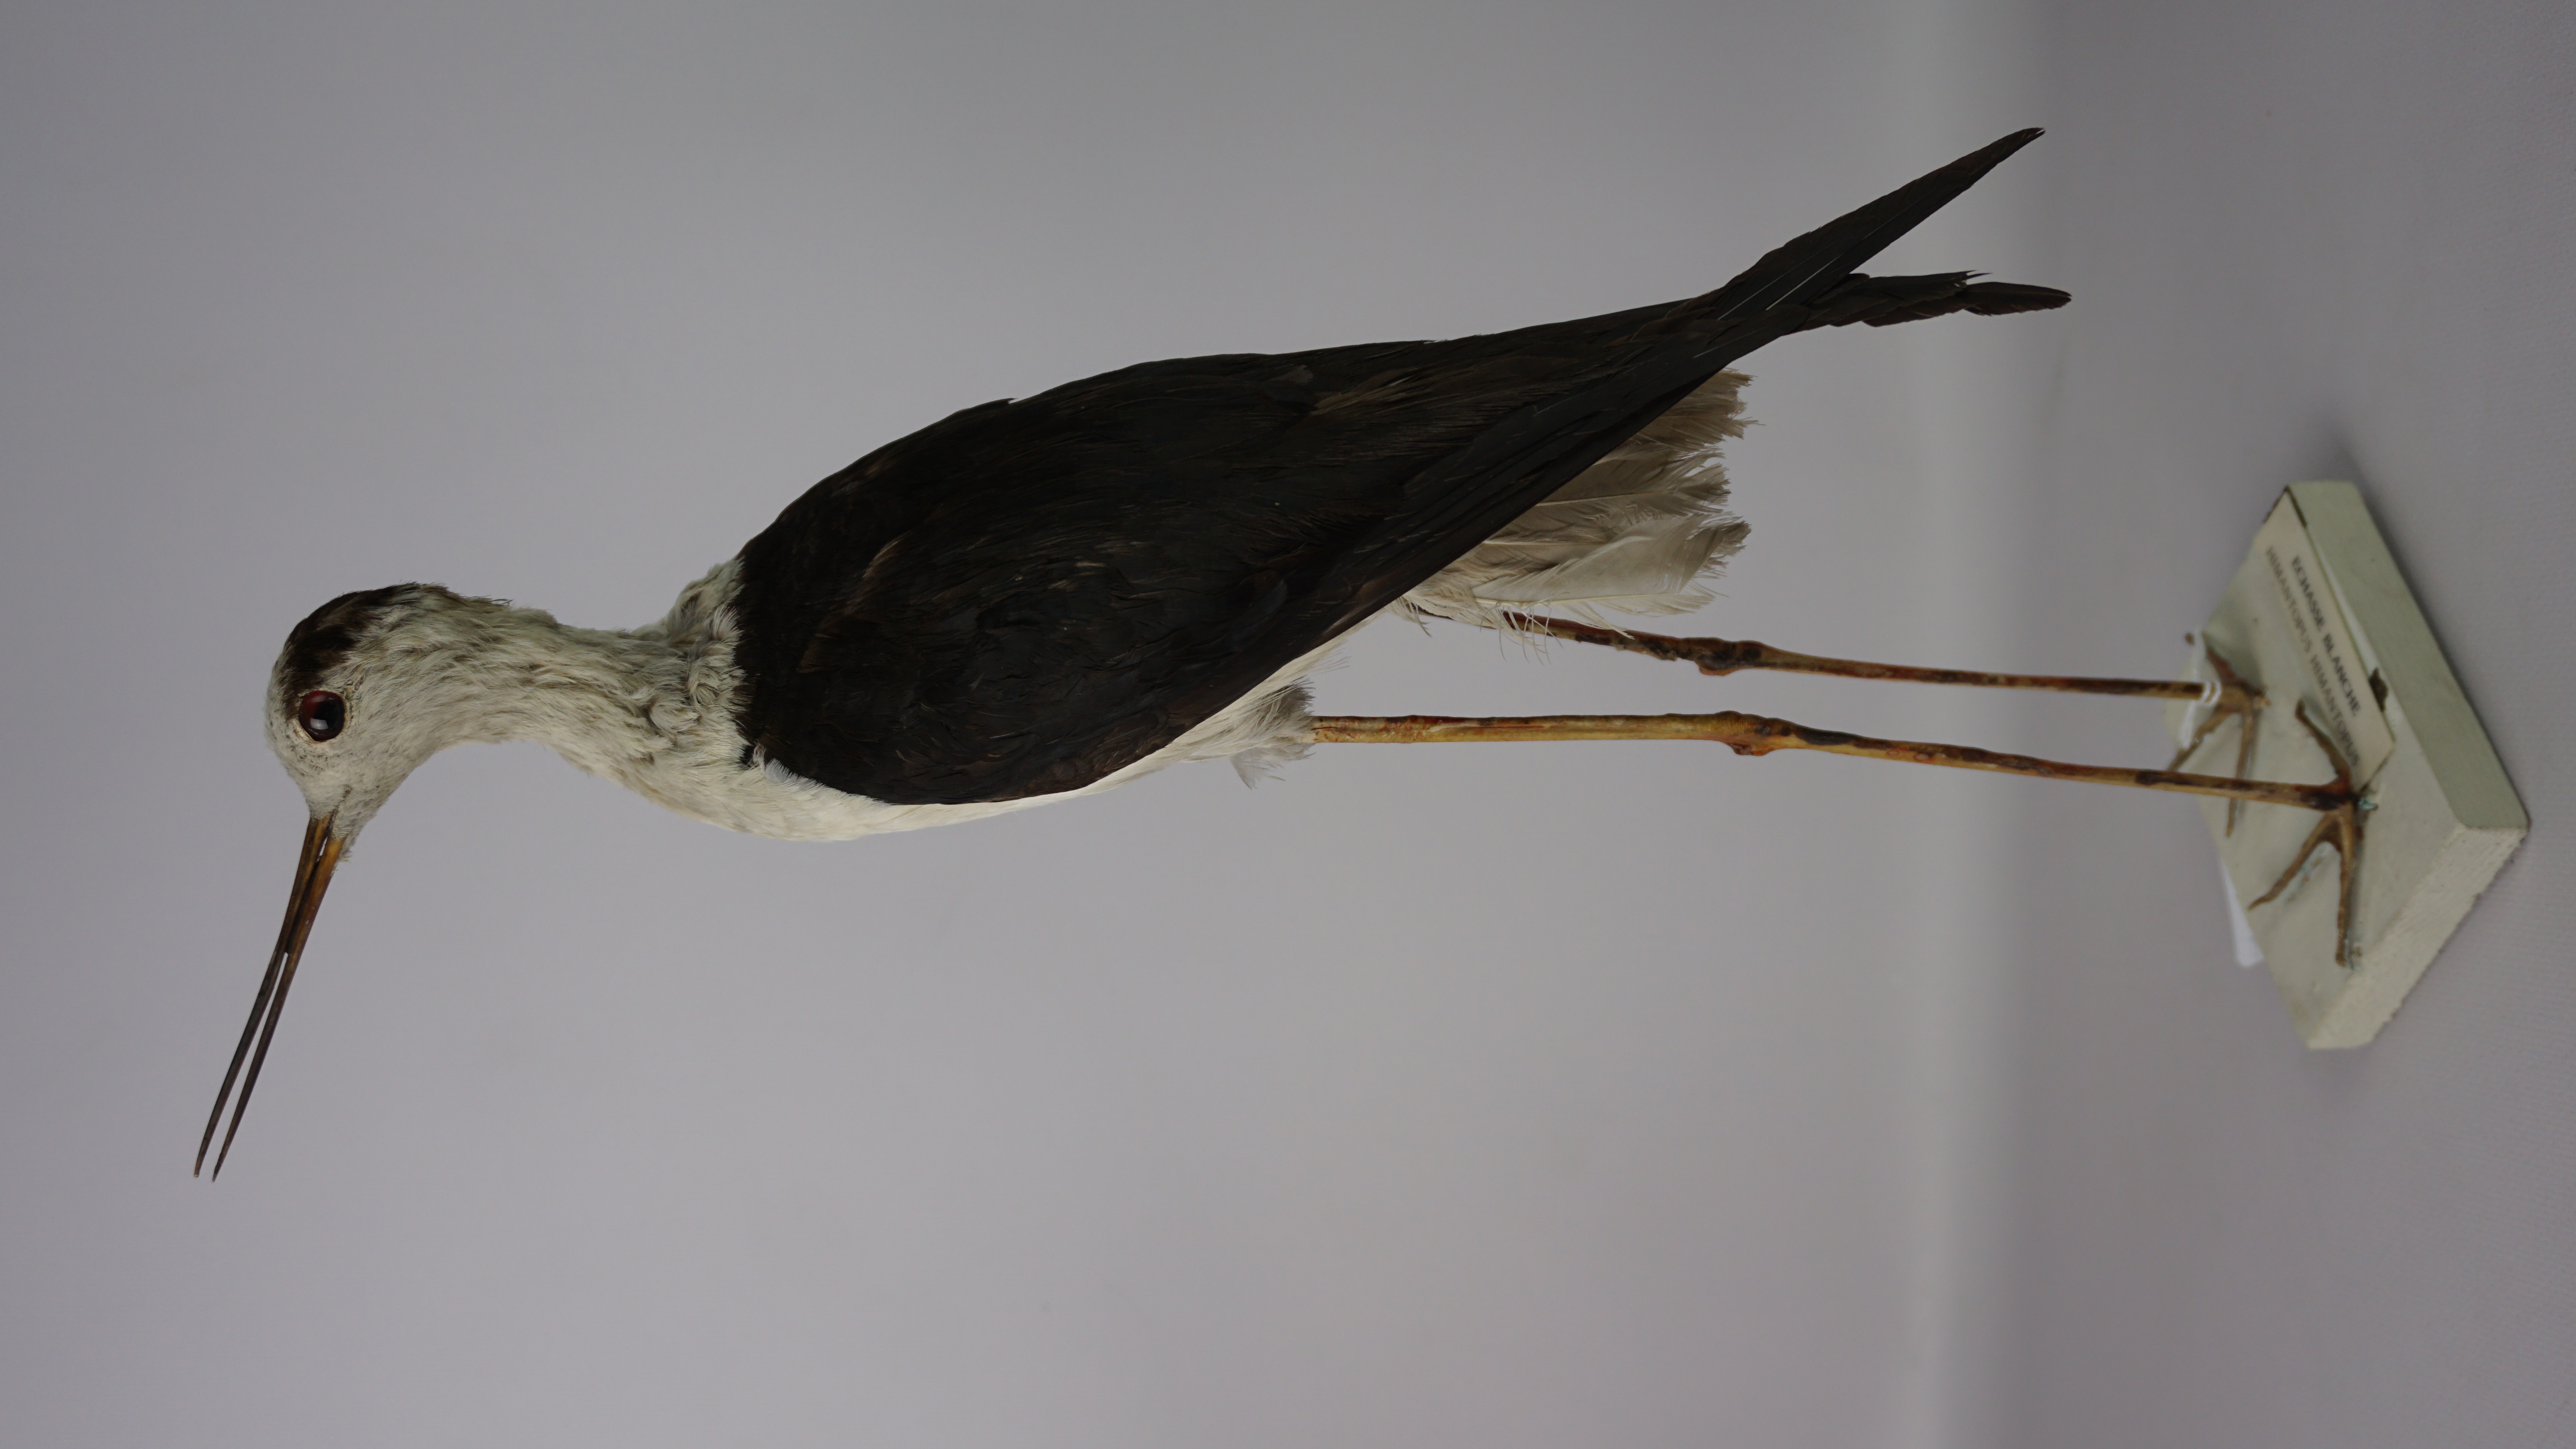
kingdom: Animalia
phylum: Chordata
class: Aves
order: Charadriiformes
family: Recurvirostridae
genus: Himantopus
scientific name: Himantopus himantopus
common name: Black-winged stilt
